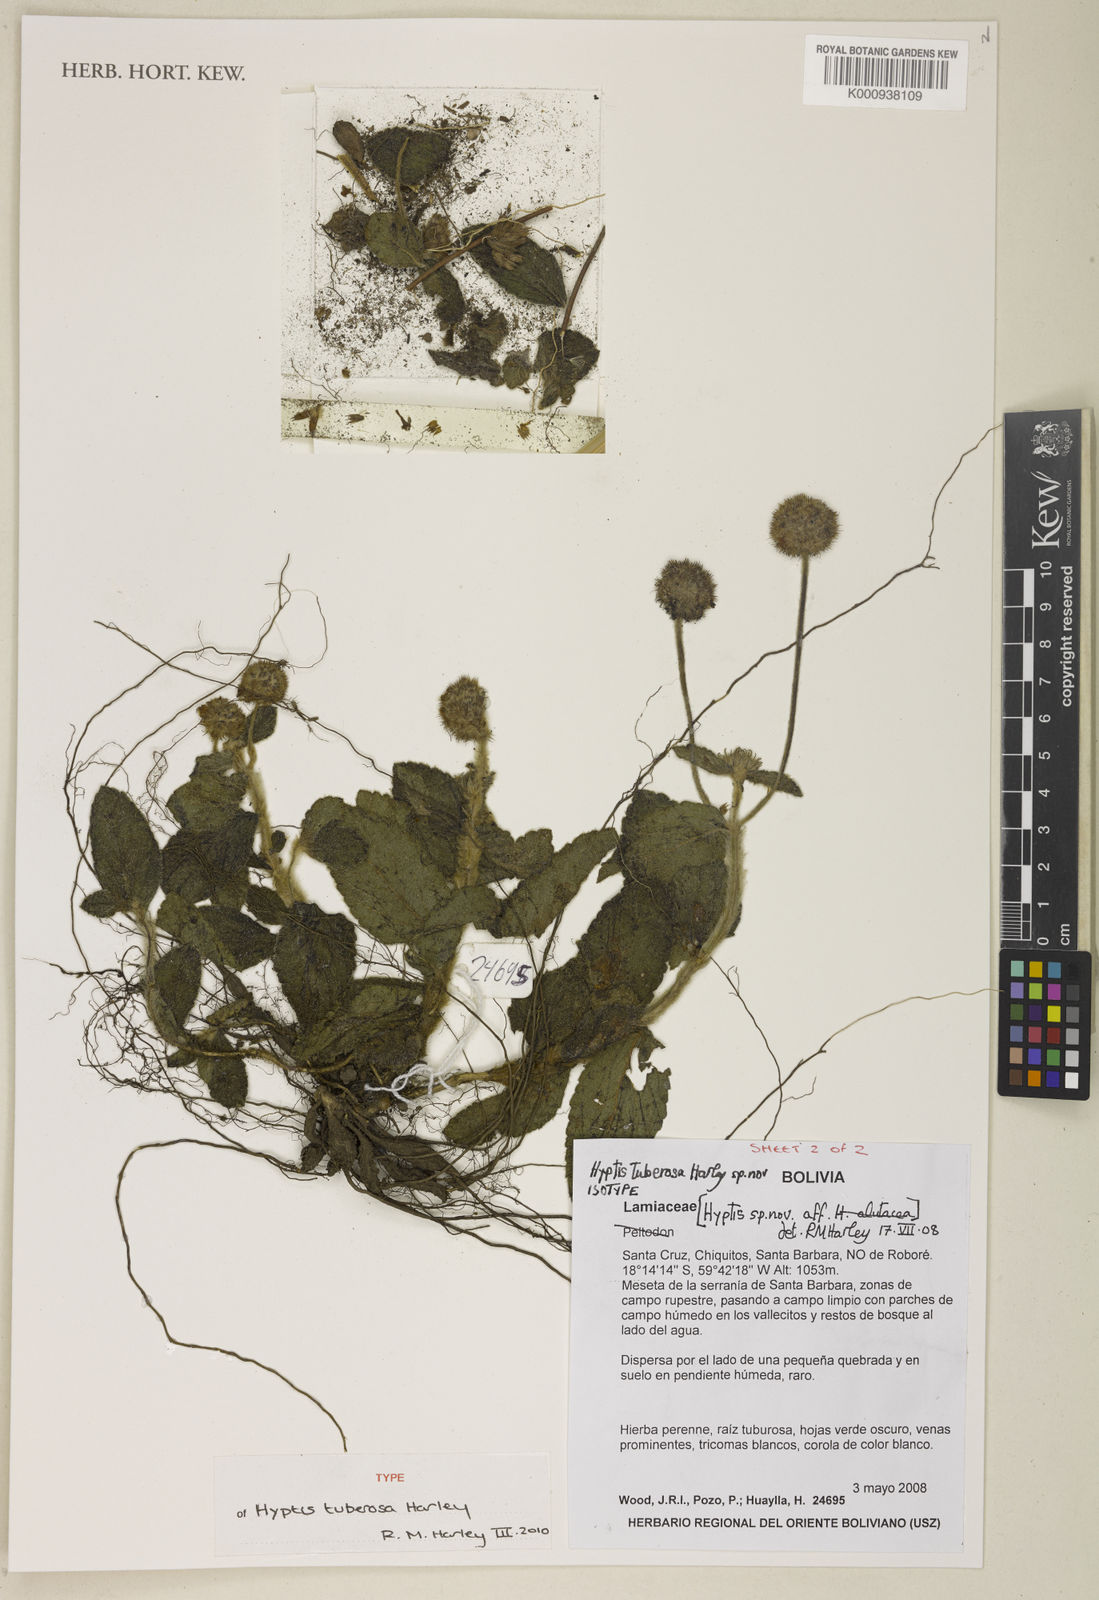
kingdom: Plantae
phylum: Tracheophyta
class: Magnoliopsida
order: Lamiales
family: Lamiaceae
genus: Hyptis
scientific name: Hyptis tuberosa
